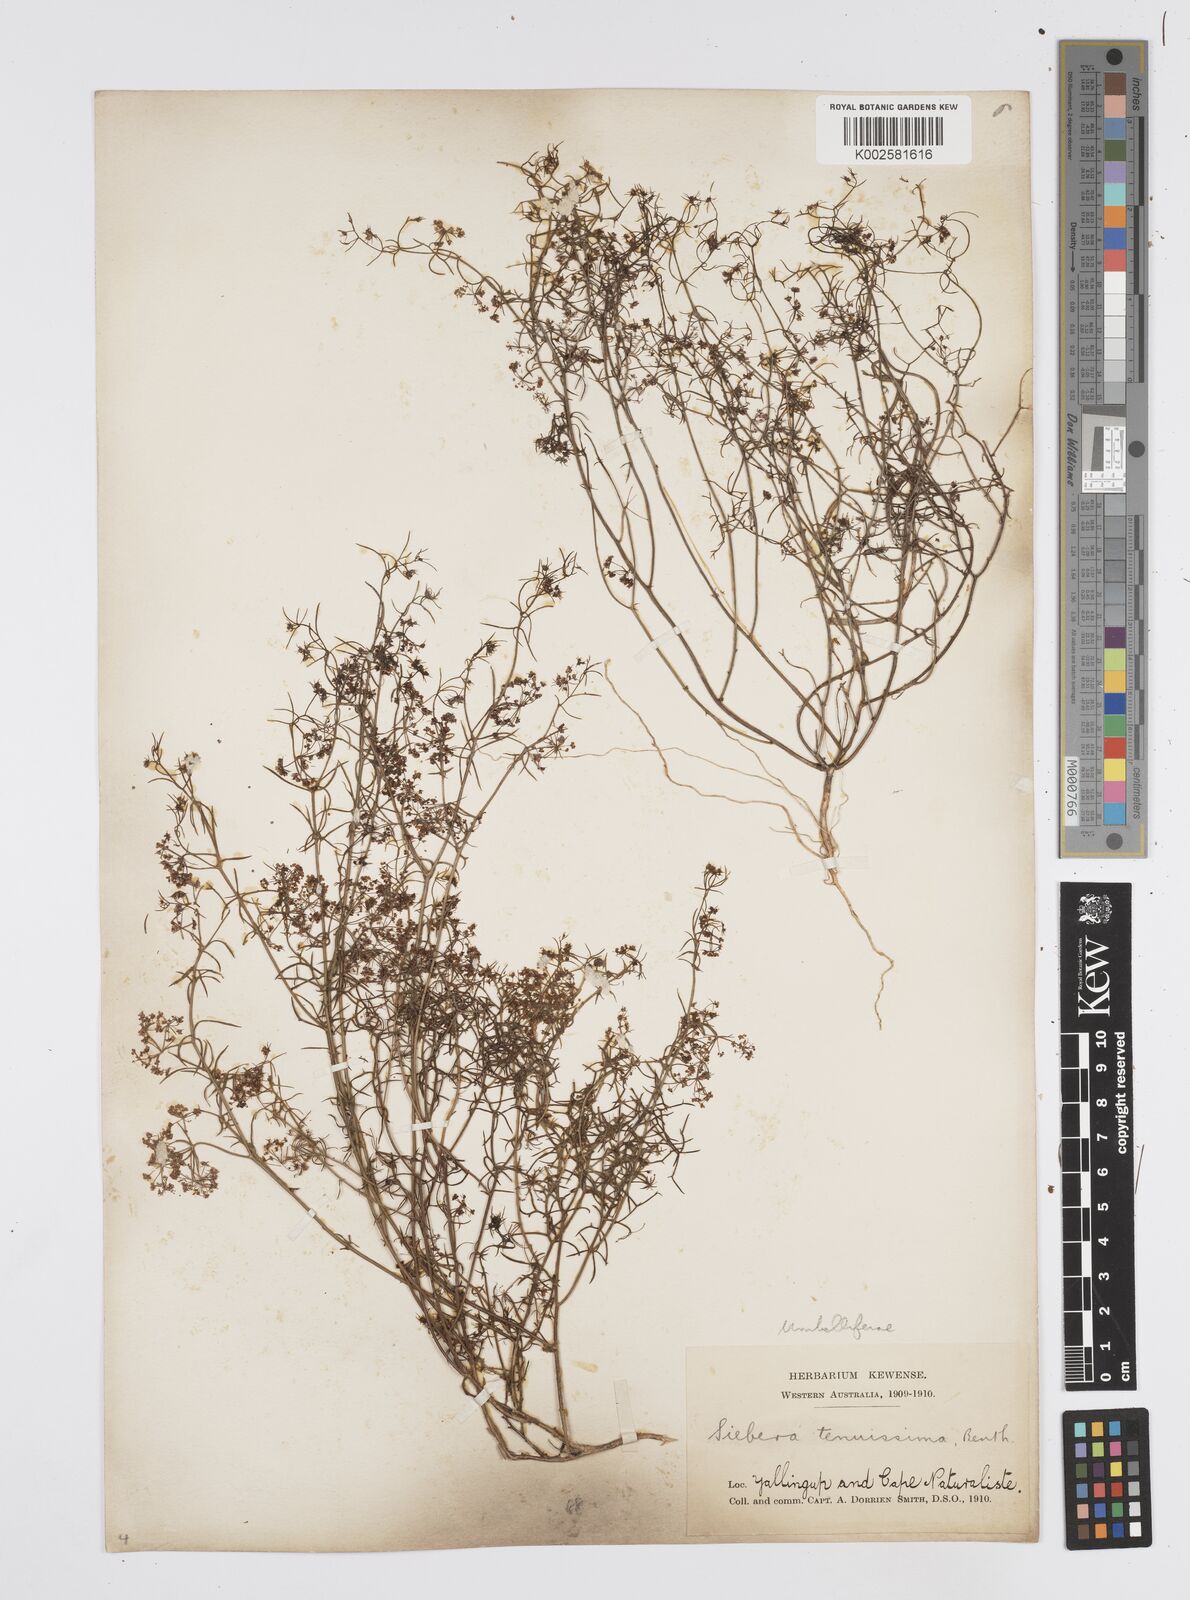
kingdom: Plantae
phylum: Tracheophyta
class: Magnoliopsida
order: Apiales
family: Apiaceae
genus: Platysace
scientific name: Platysace tenuissima
